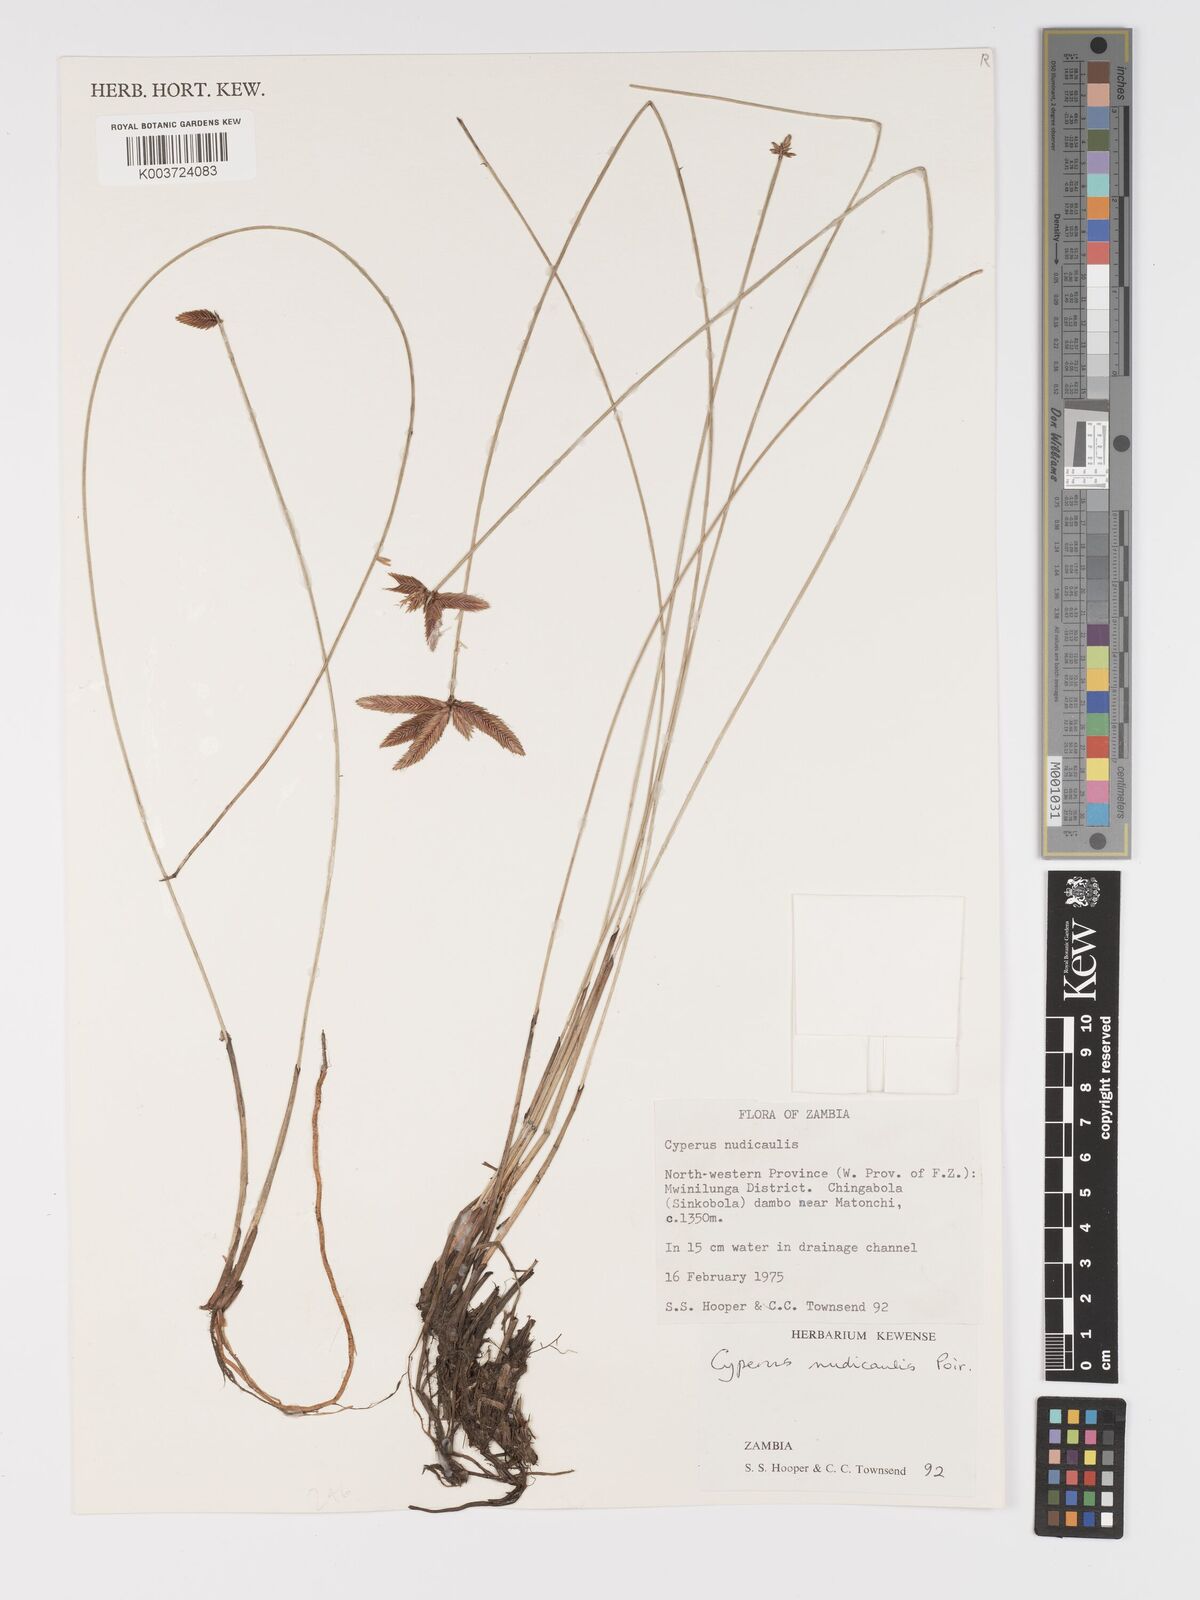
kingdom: Plantae
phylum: Tracheophyta
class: Liliopsida
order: Poales
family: Cyperaceae
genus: Cyperus
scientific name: Cyperus compressus
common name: Poorland flatsedge
